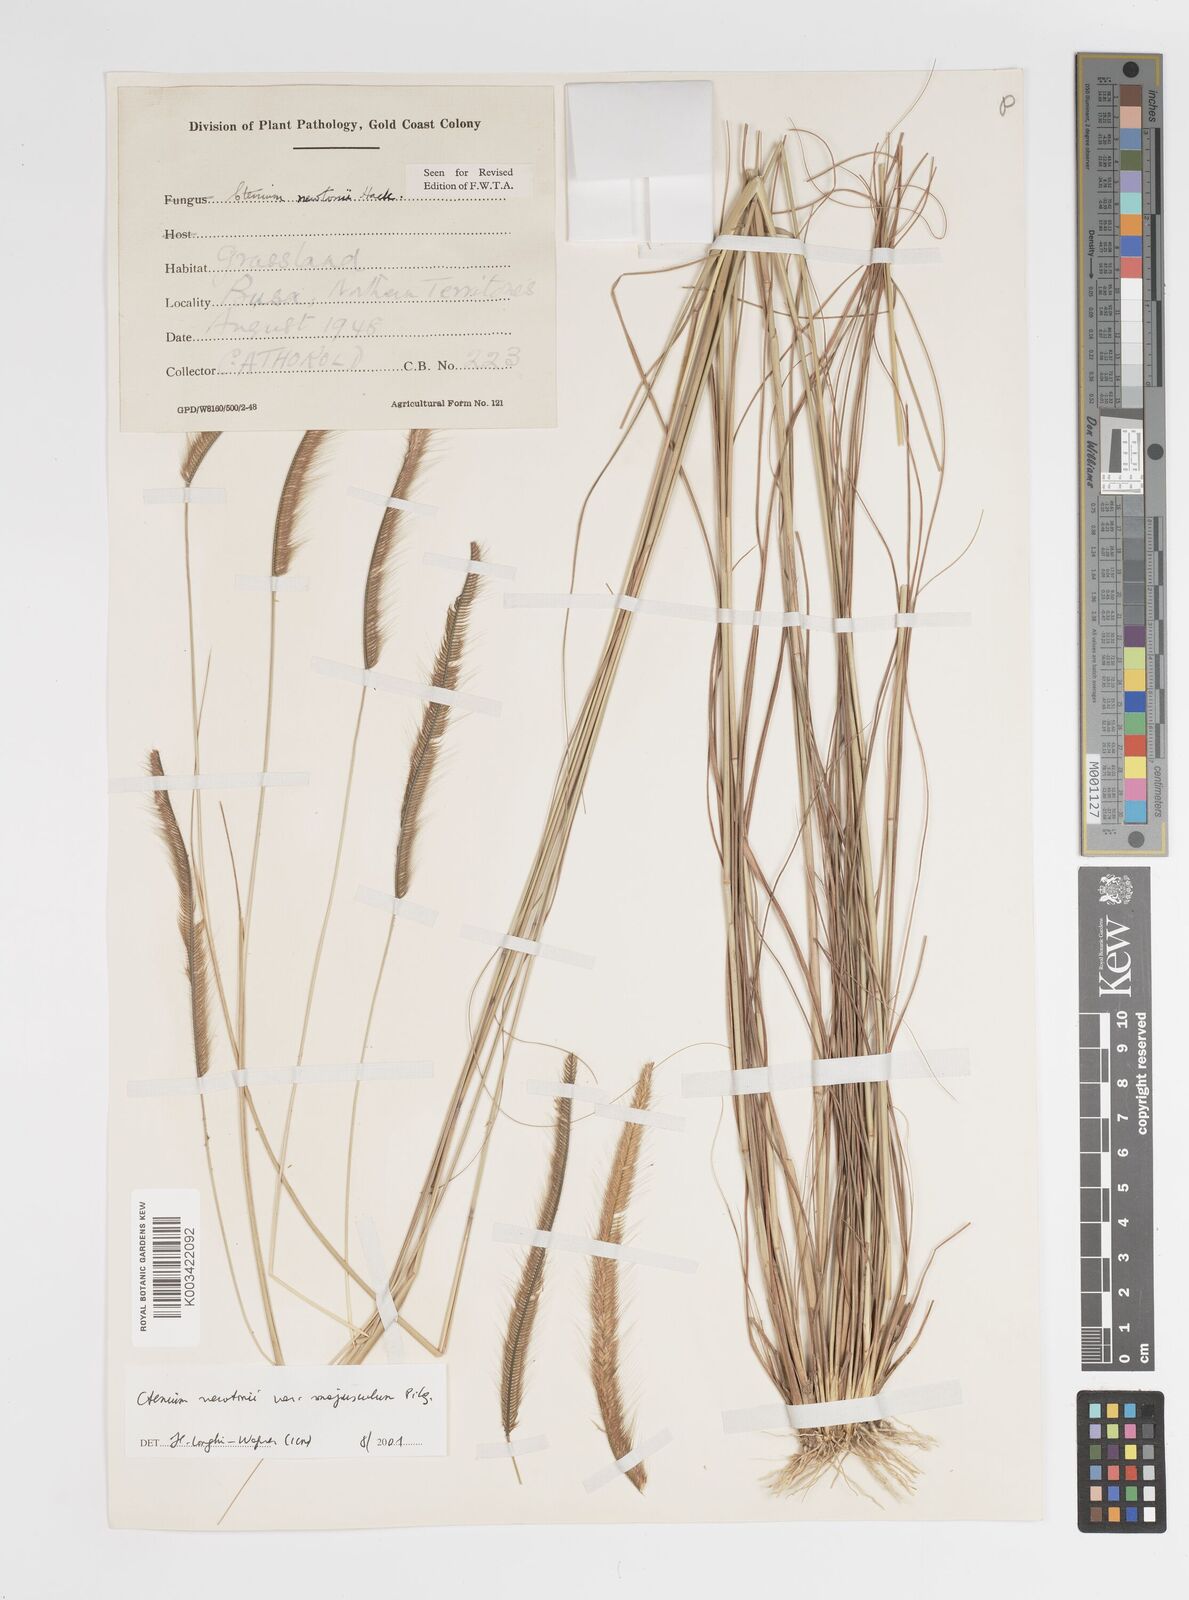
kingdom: Plantae
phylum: Tracheophyta
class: Liliopsida
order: Poales
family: Poaceae
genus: Ctenium
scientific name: Ctenium newtonii
